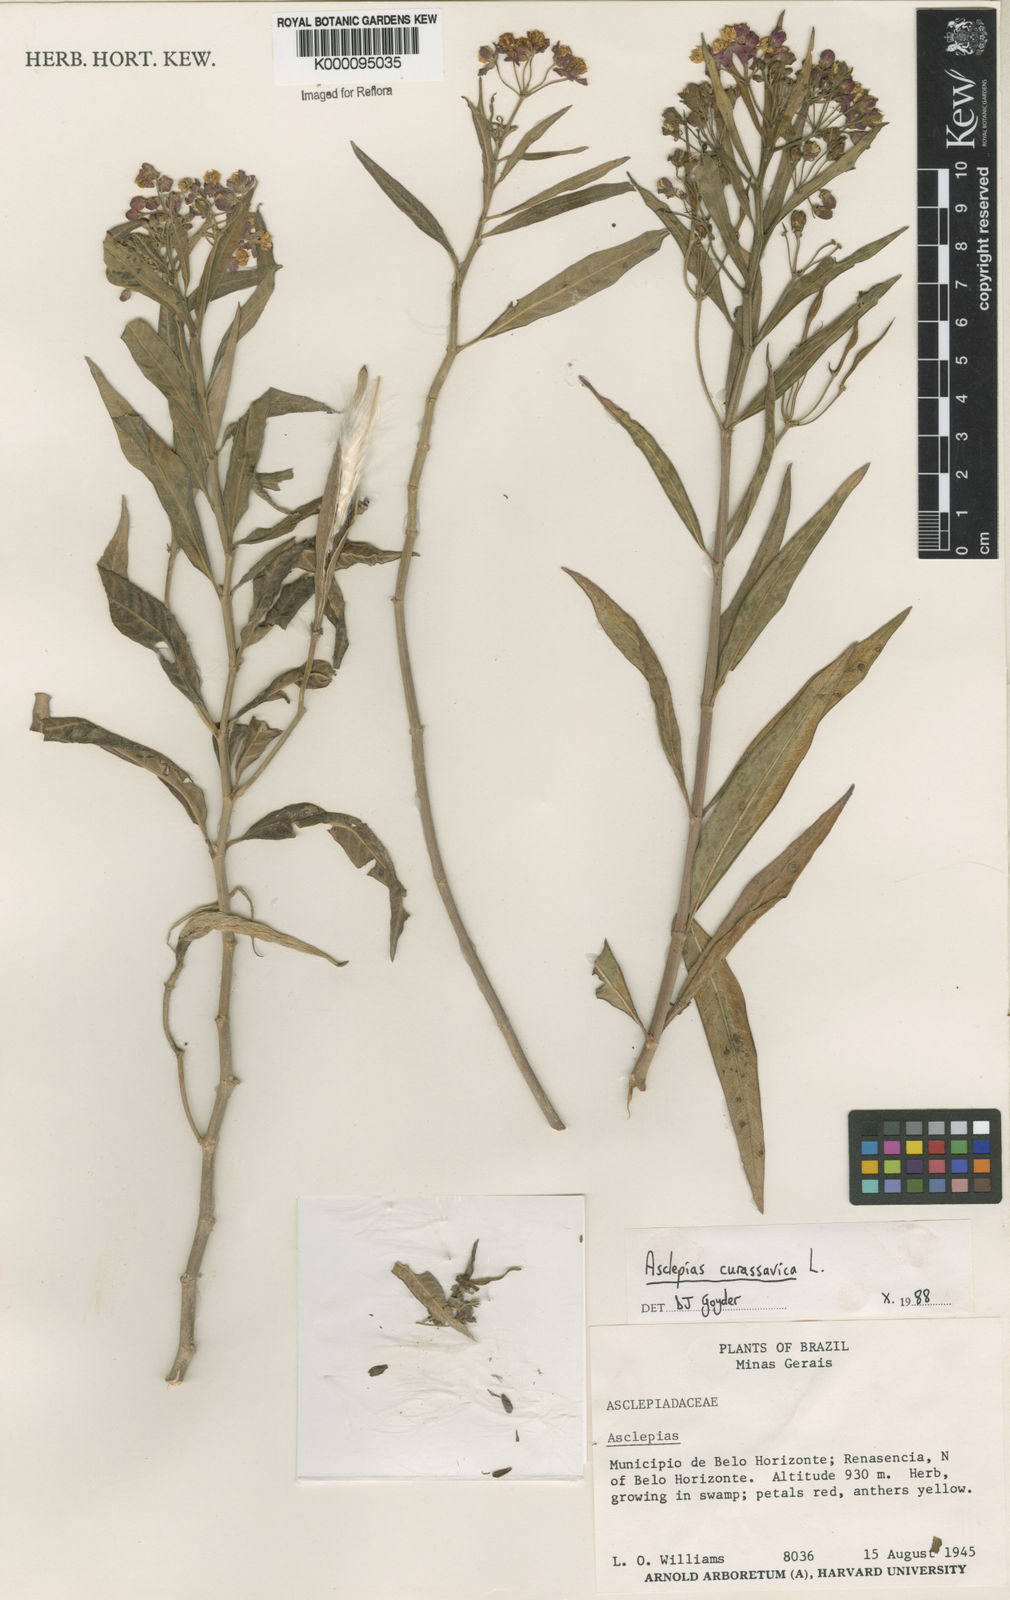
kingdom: Plantae
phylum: Tracheophyta
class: Magnoliopsida
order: Gentianales
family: Apocynaceae
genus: Asclepias
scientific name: Asclepias curassavica
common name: Bloodflower
